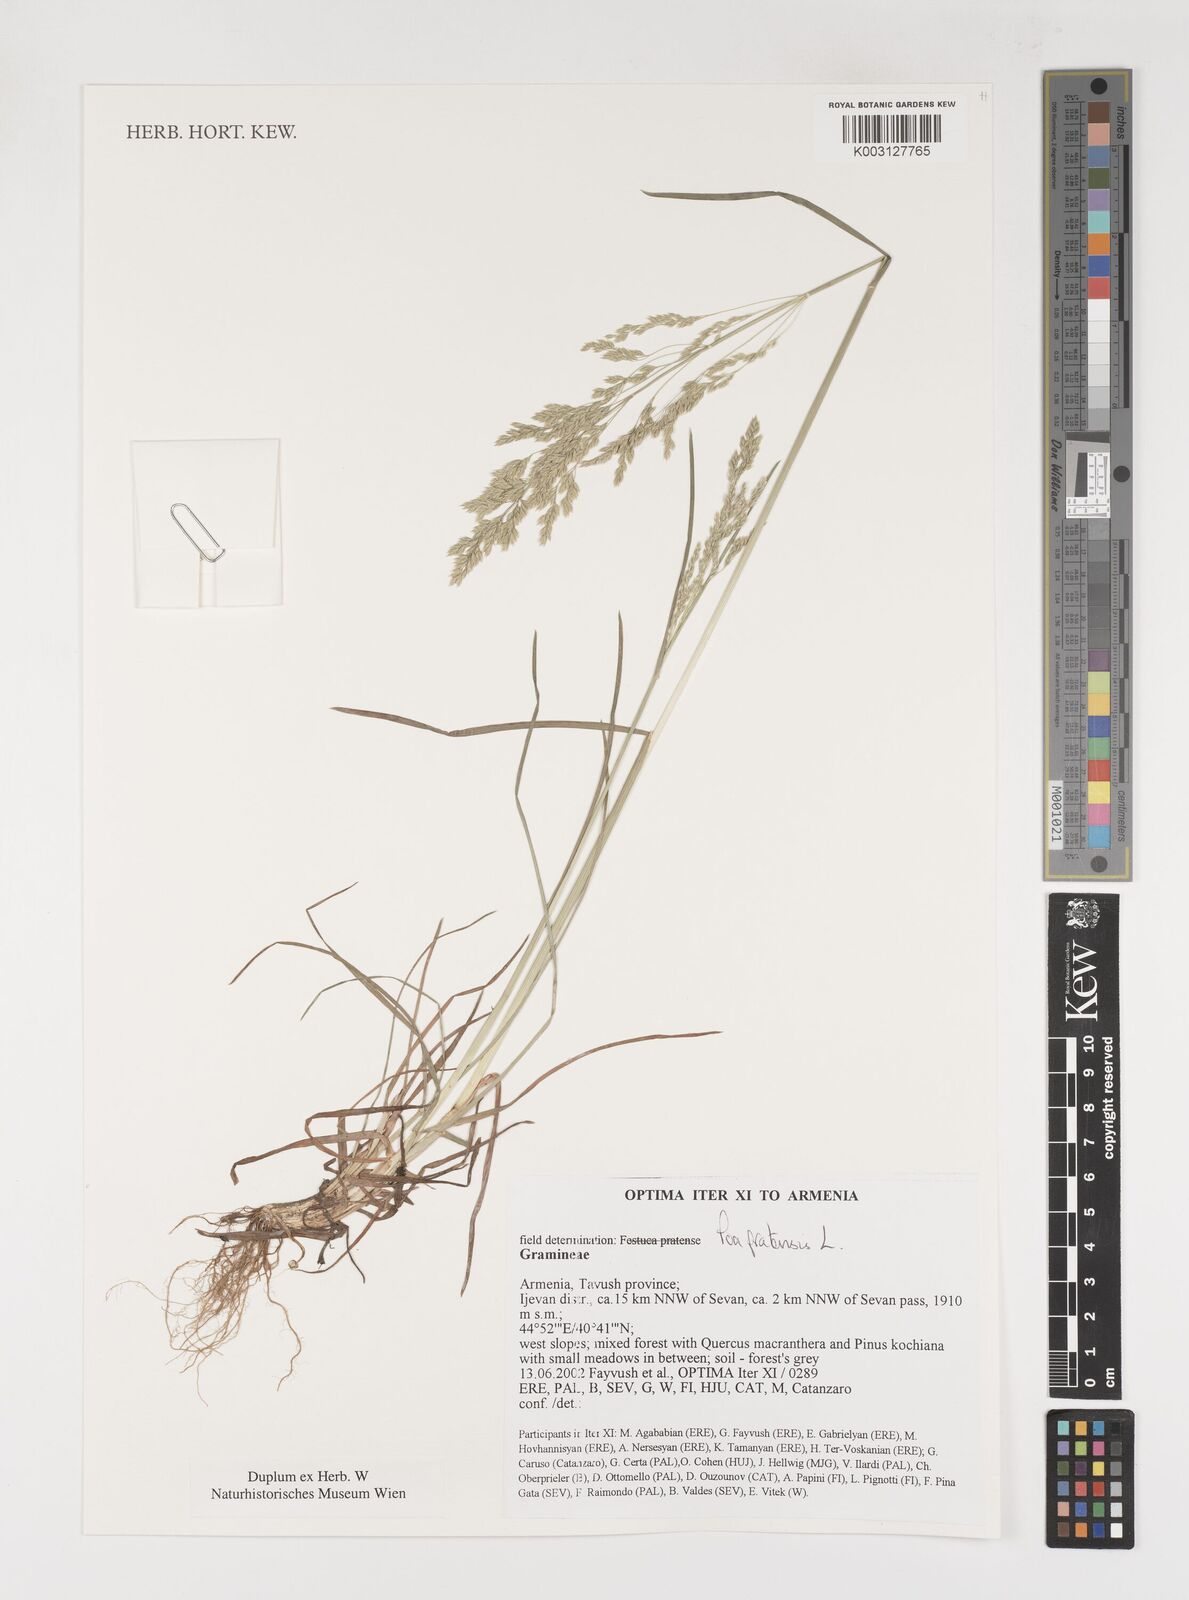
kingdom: Plantae
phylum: Tracheophyta
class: Liliopsida
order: Poales
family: Poaceae
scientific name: Poaceae
